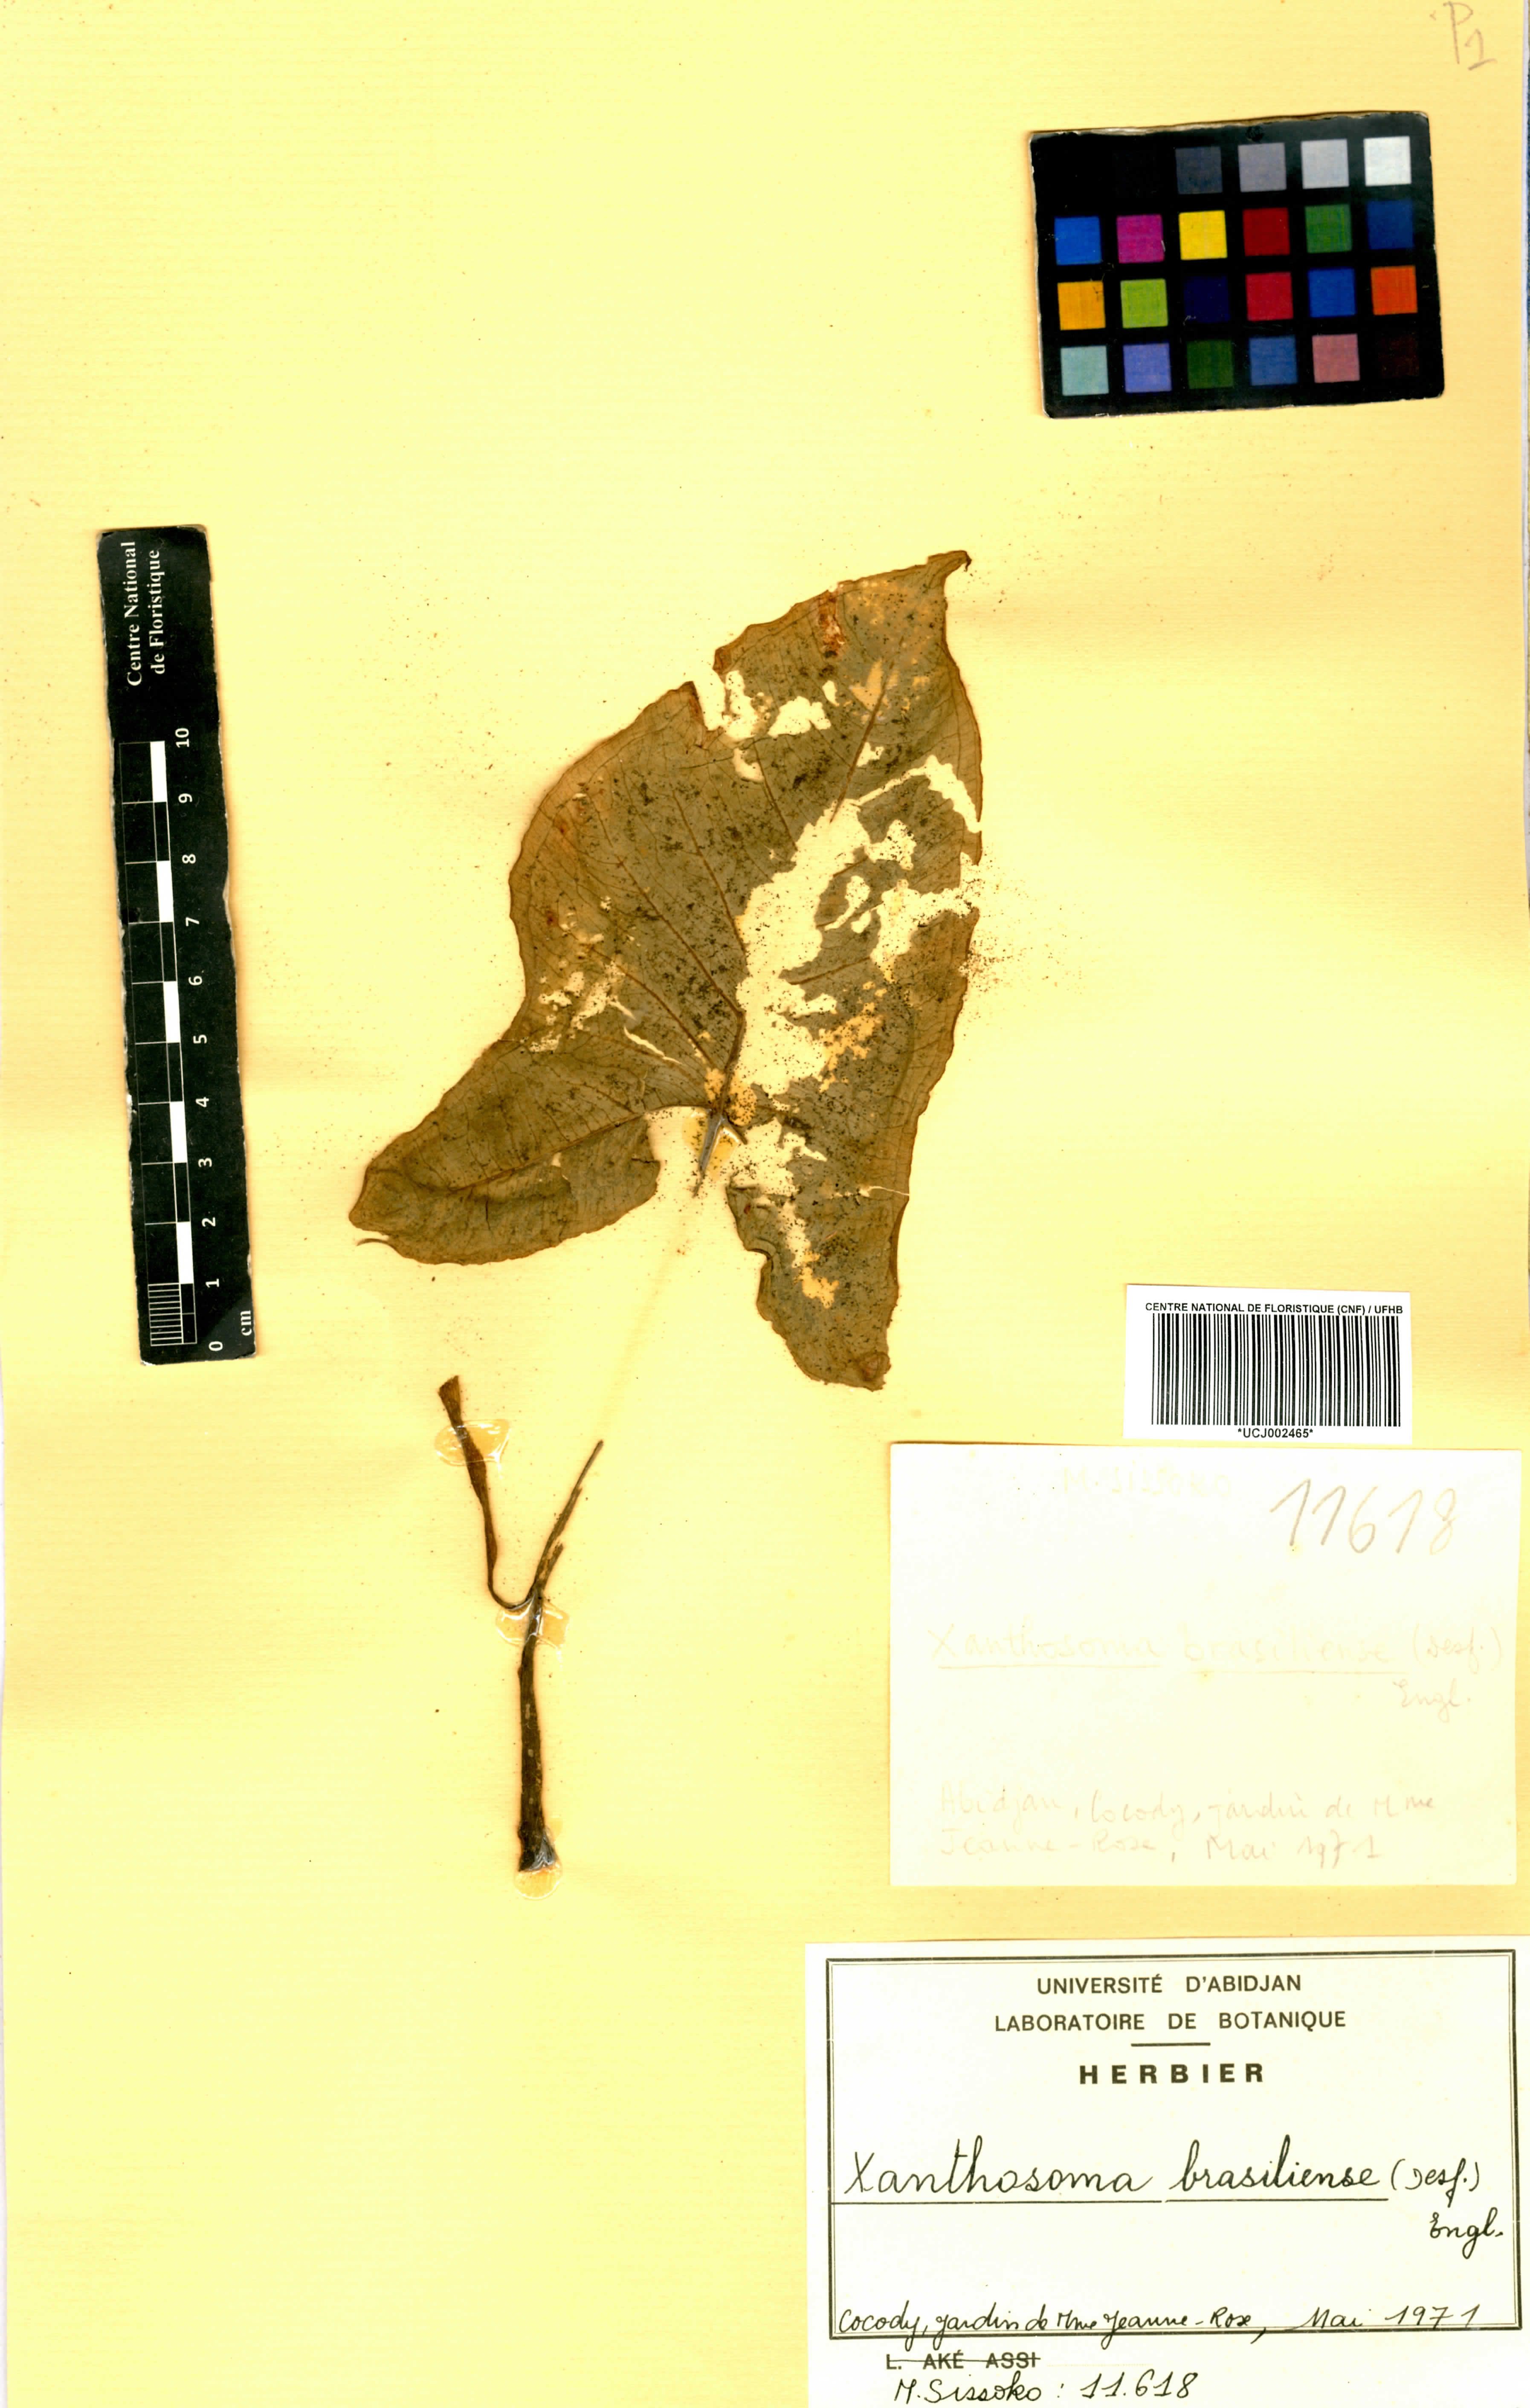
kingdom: Plantae
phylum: Tracheophyta
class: Liliopsida
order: Alismatales
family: Araceae
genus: Xanthosoma
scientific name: Xanthosoma brasiliense
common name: Tahitian-spinach
